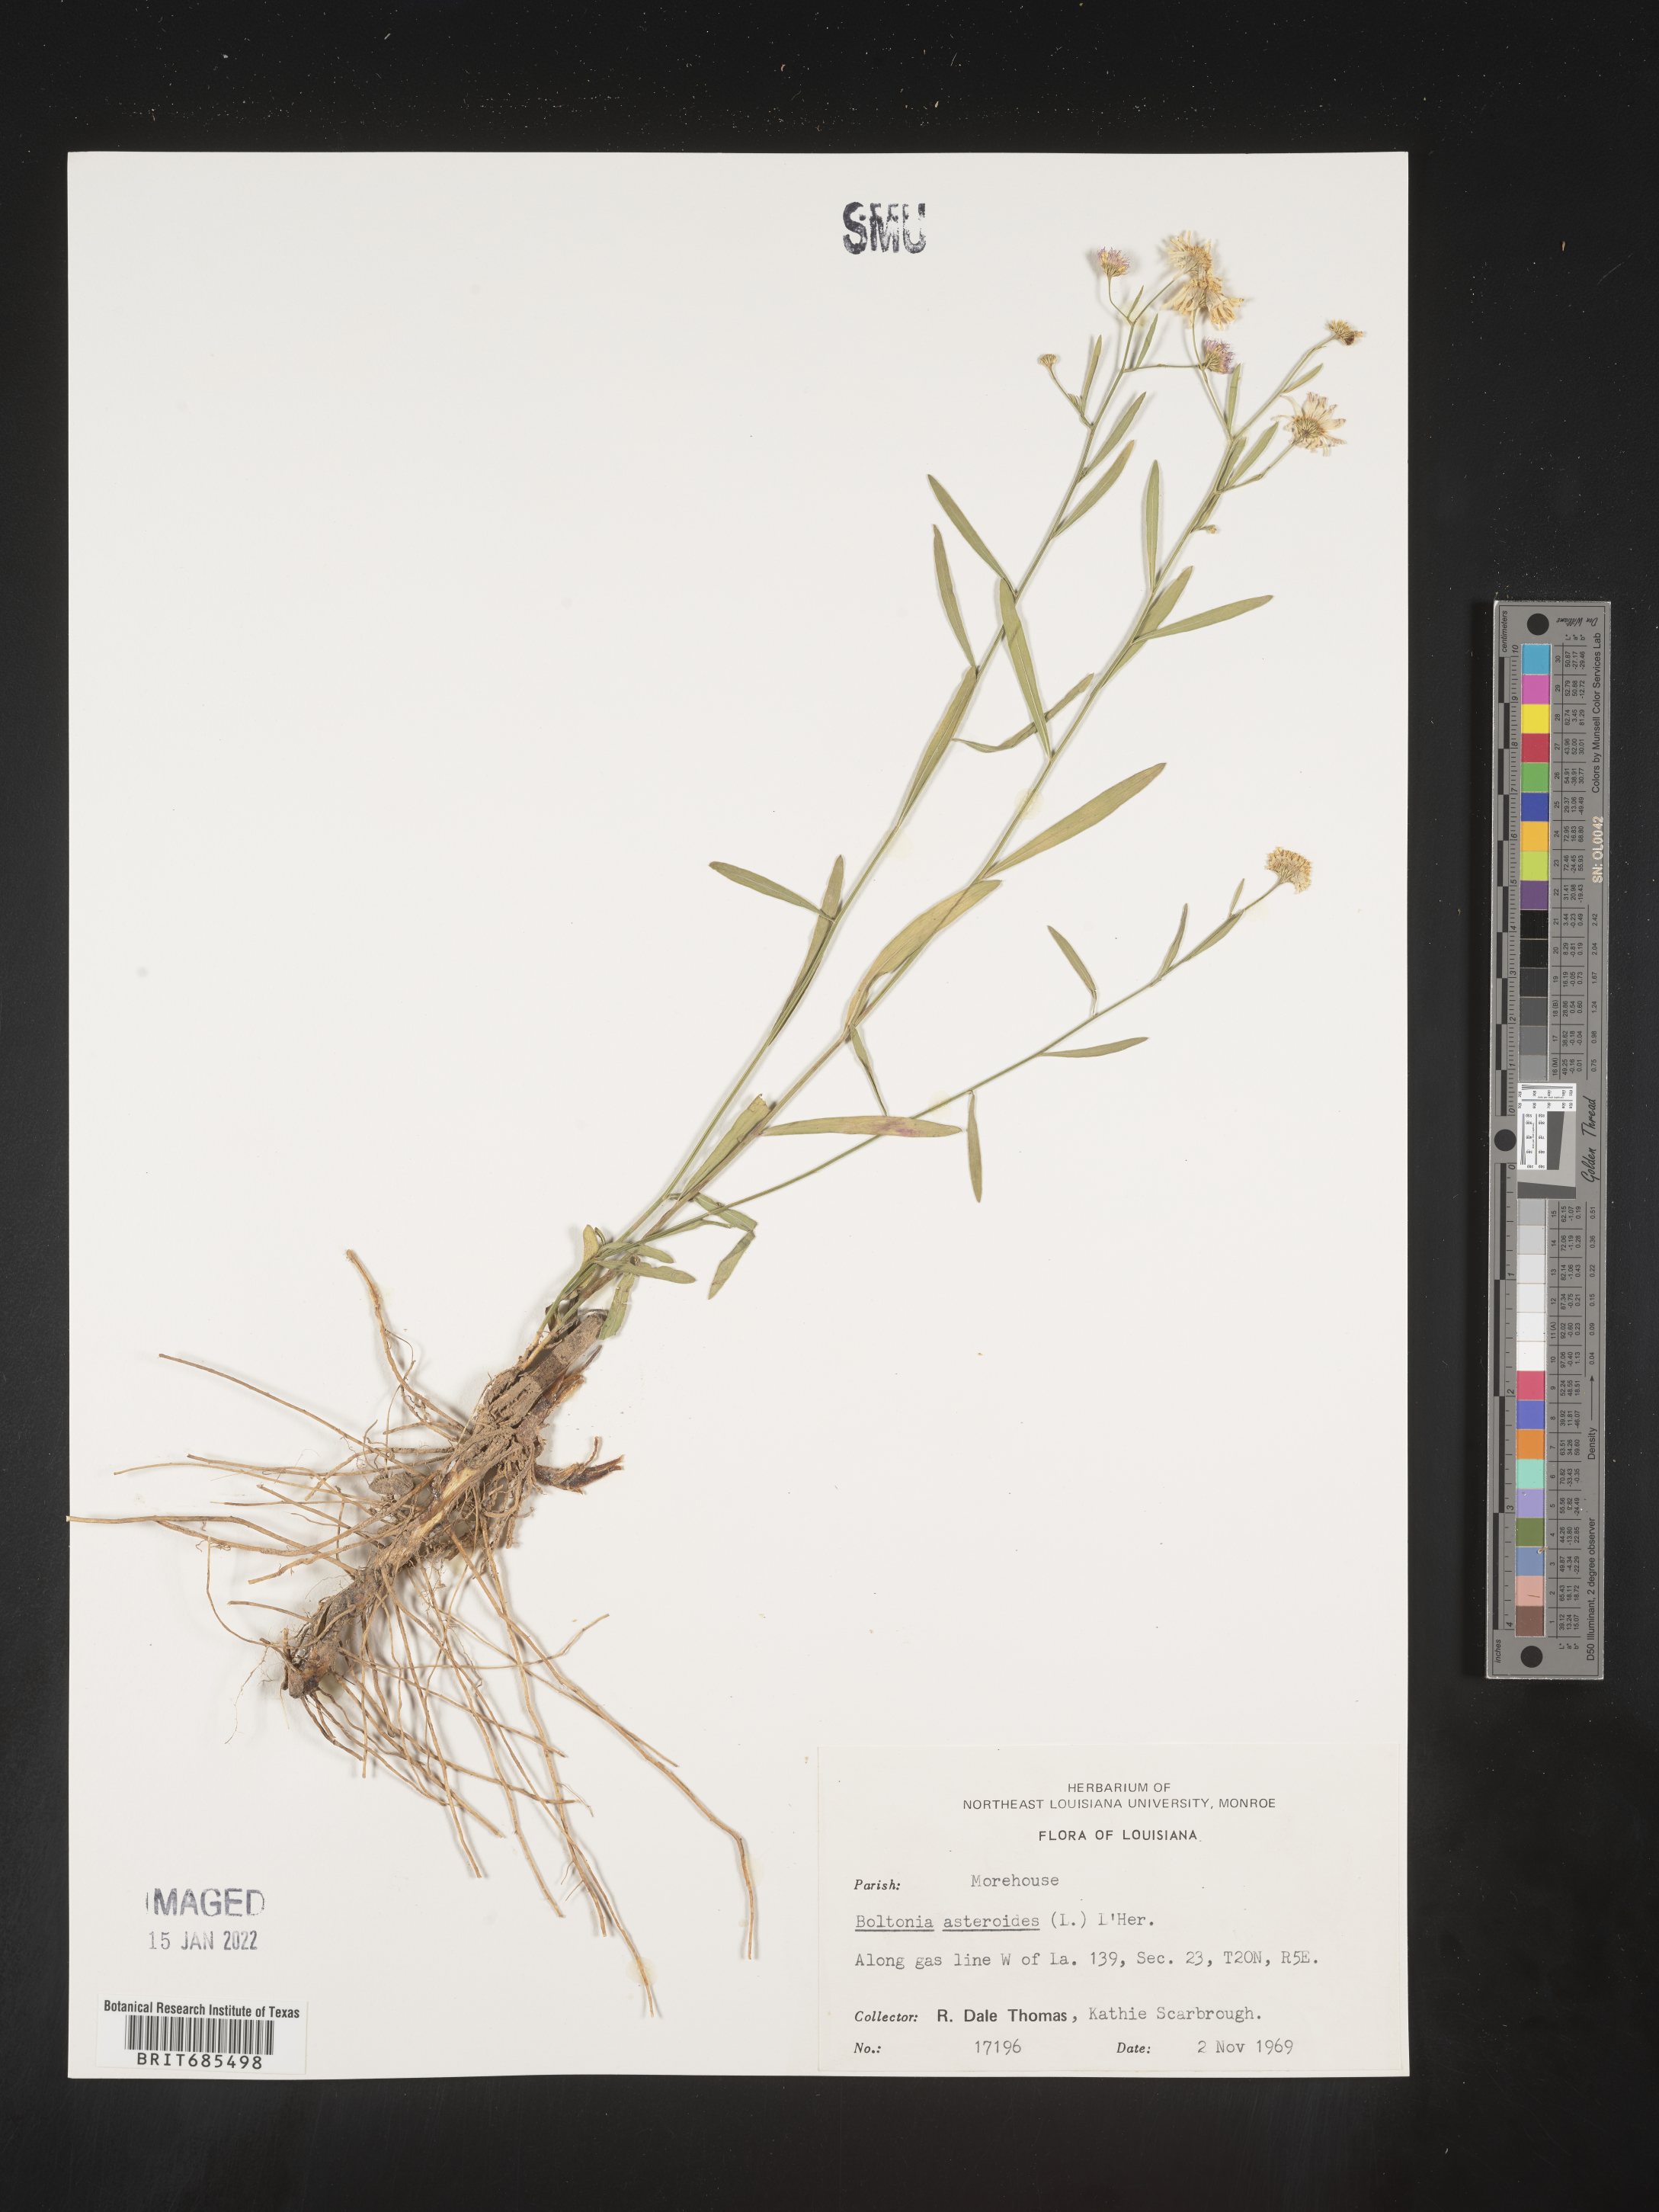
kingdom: Plantae
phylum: Tracheophyta
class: Magnoliopsida
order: Asterales
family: Asteraceae
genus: Boltonia
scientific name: Boltonia asteroides
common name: False chamomile
